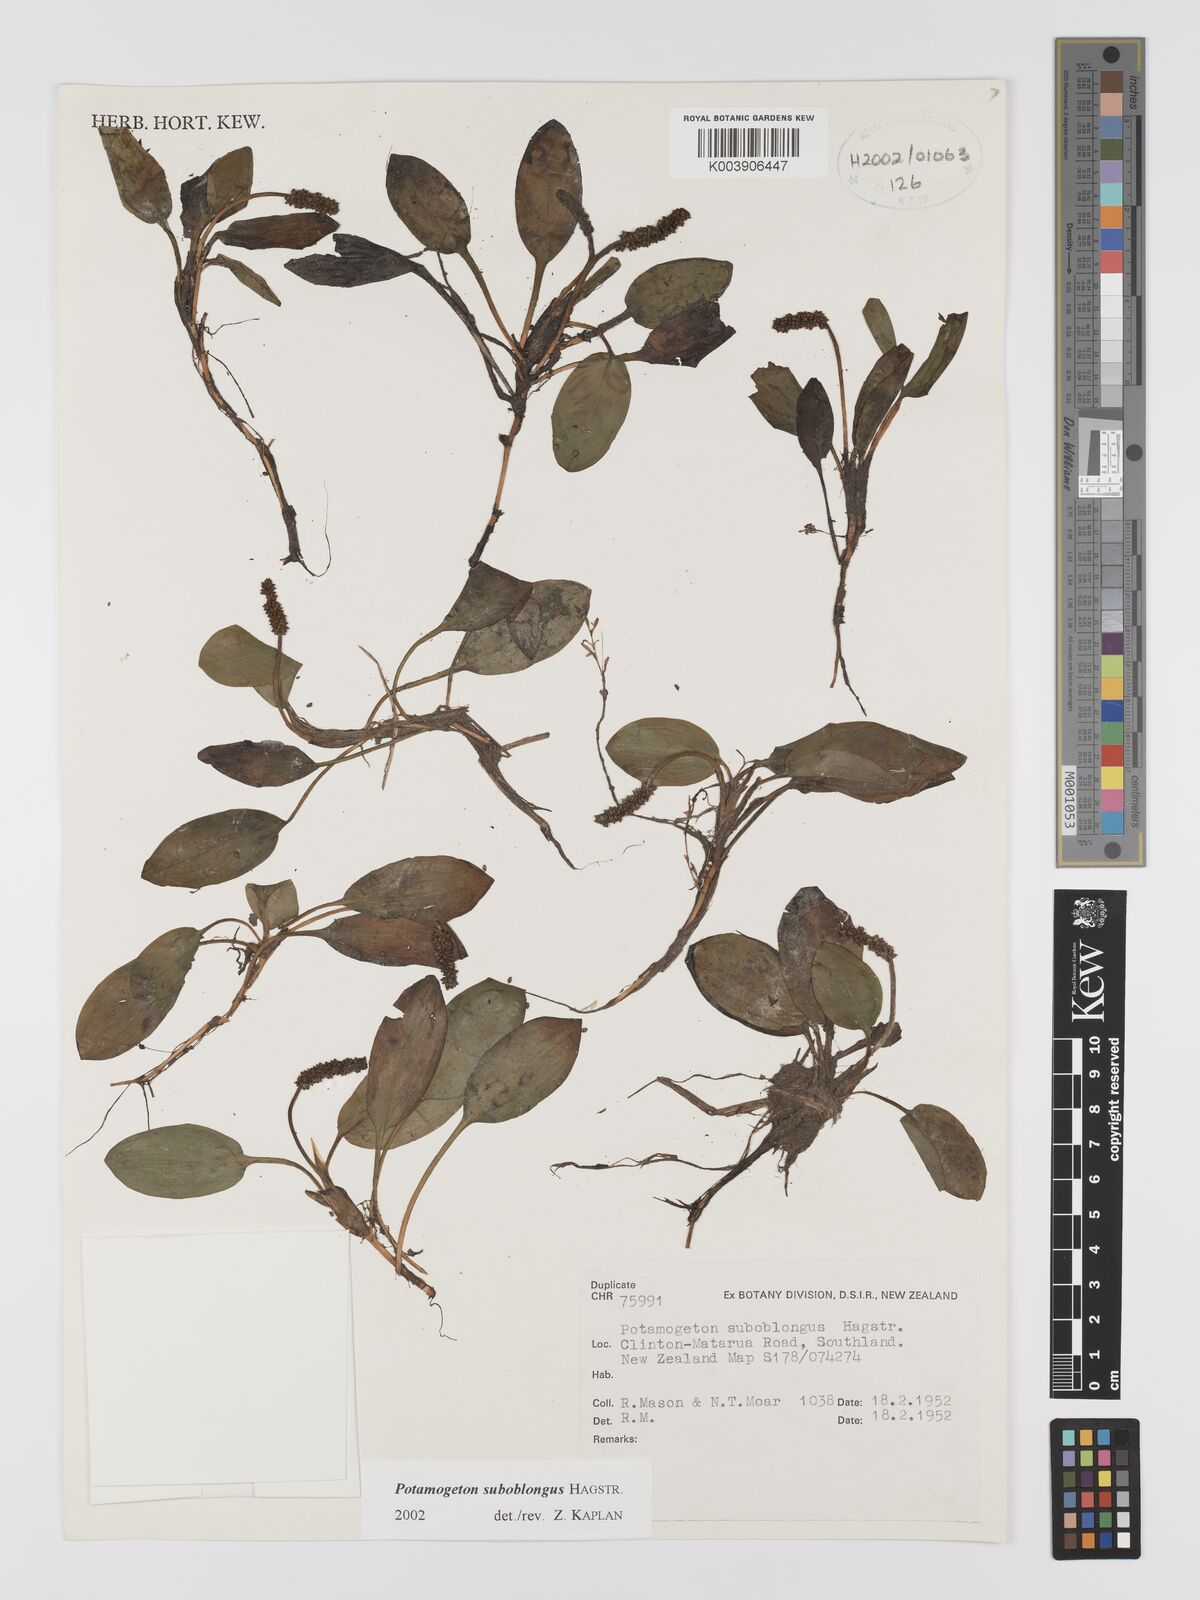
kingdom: Plantae
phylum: Tracheophyta
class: Liliopsida
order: Alismatales
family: Potamogetonaceae
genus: Potamogeton
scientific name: Potamogeton suboblongus
